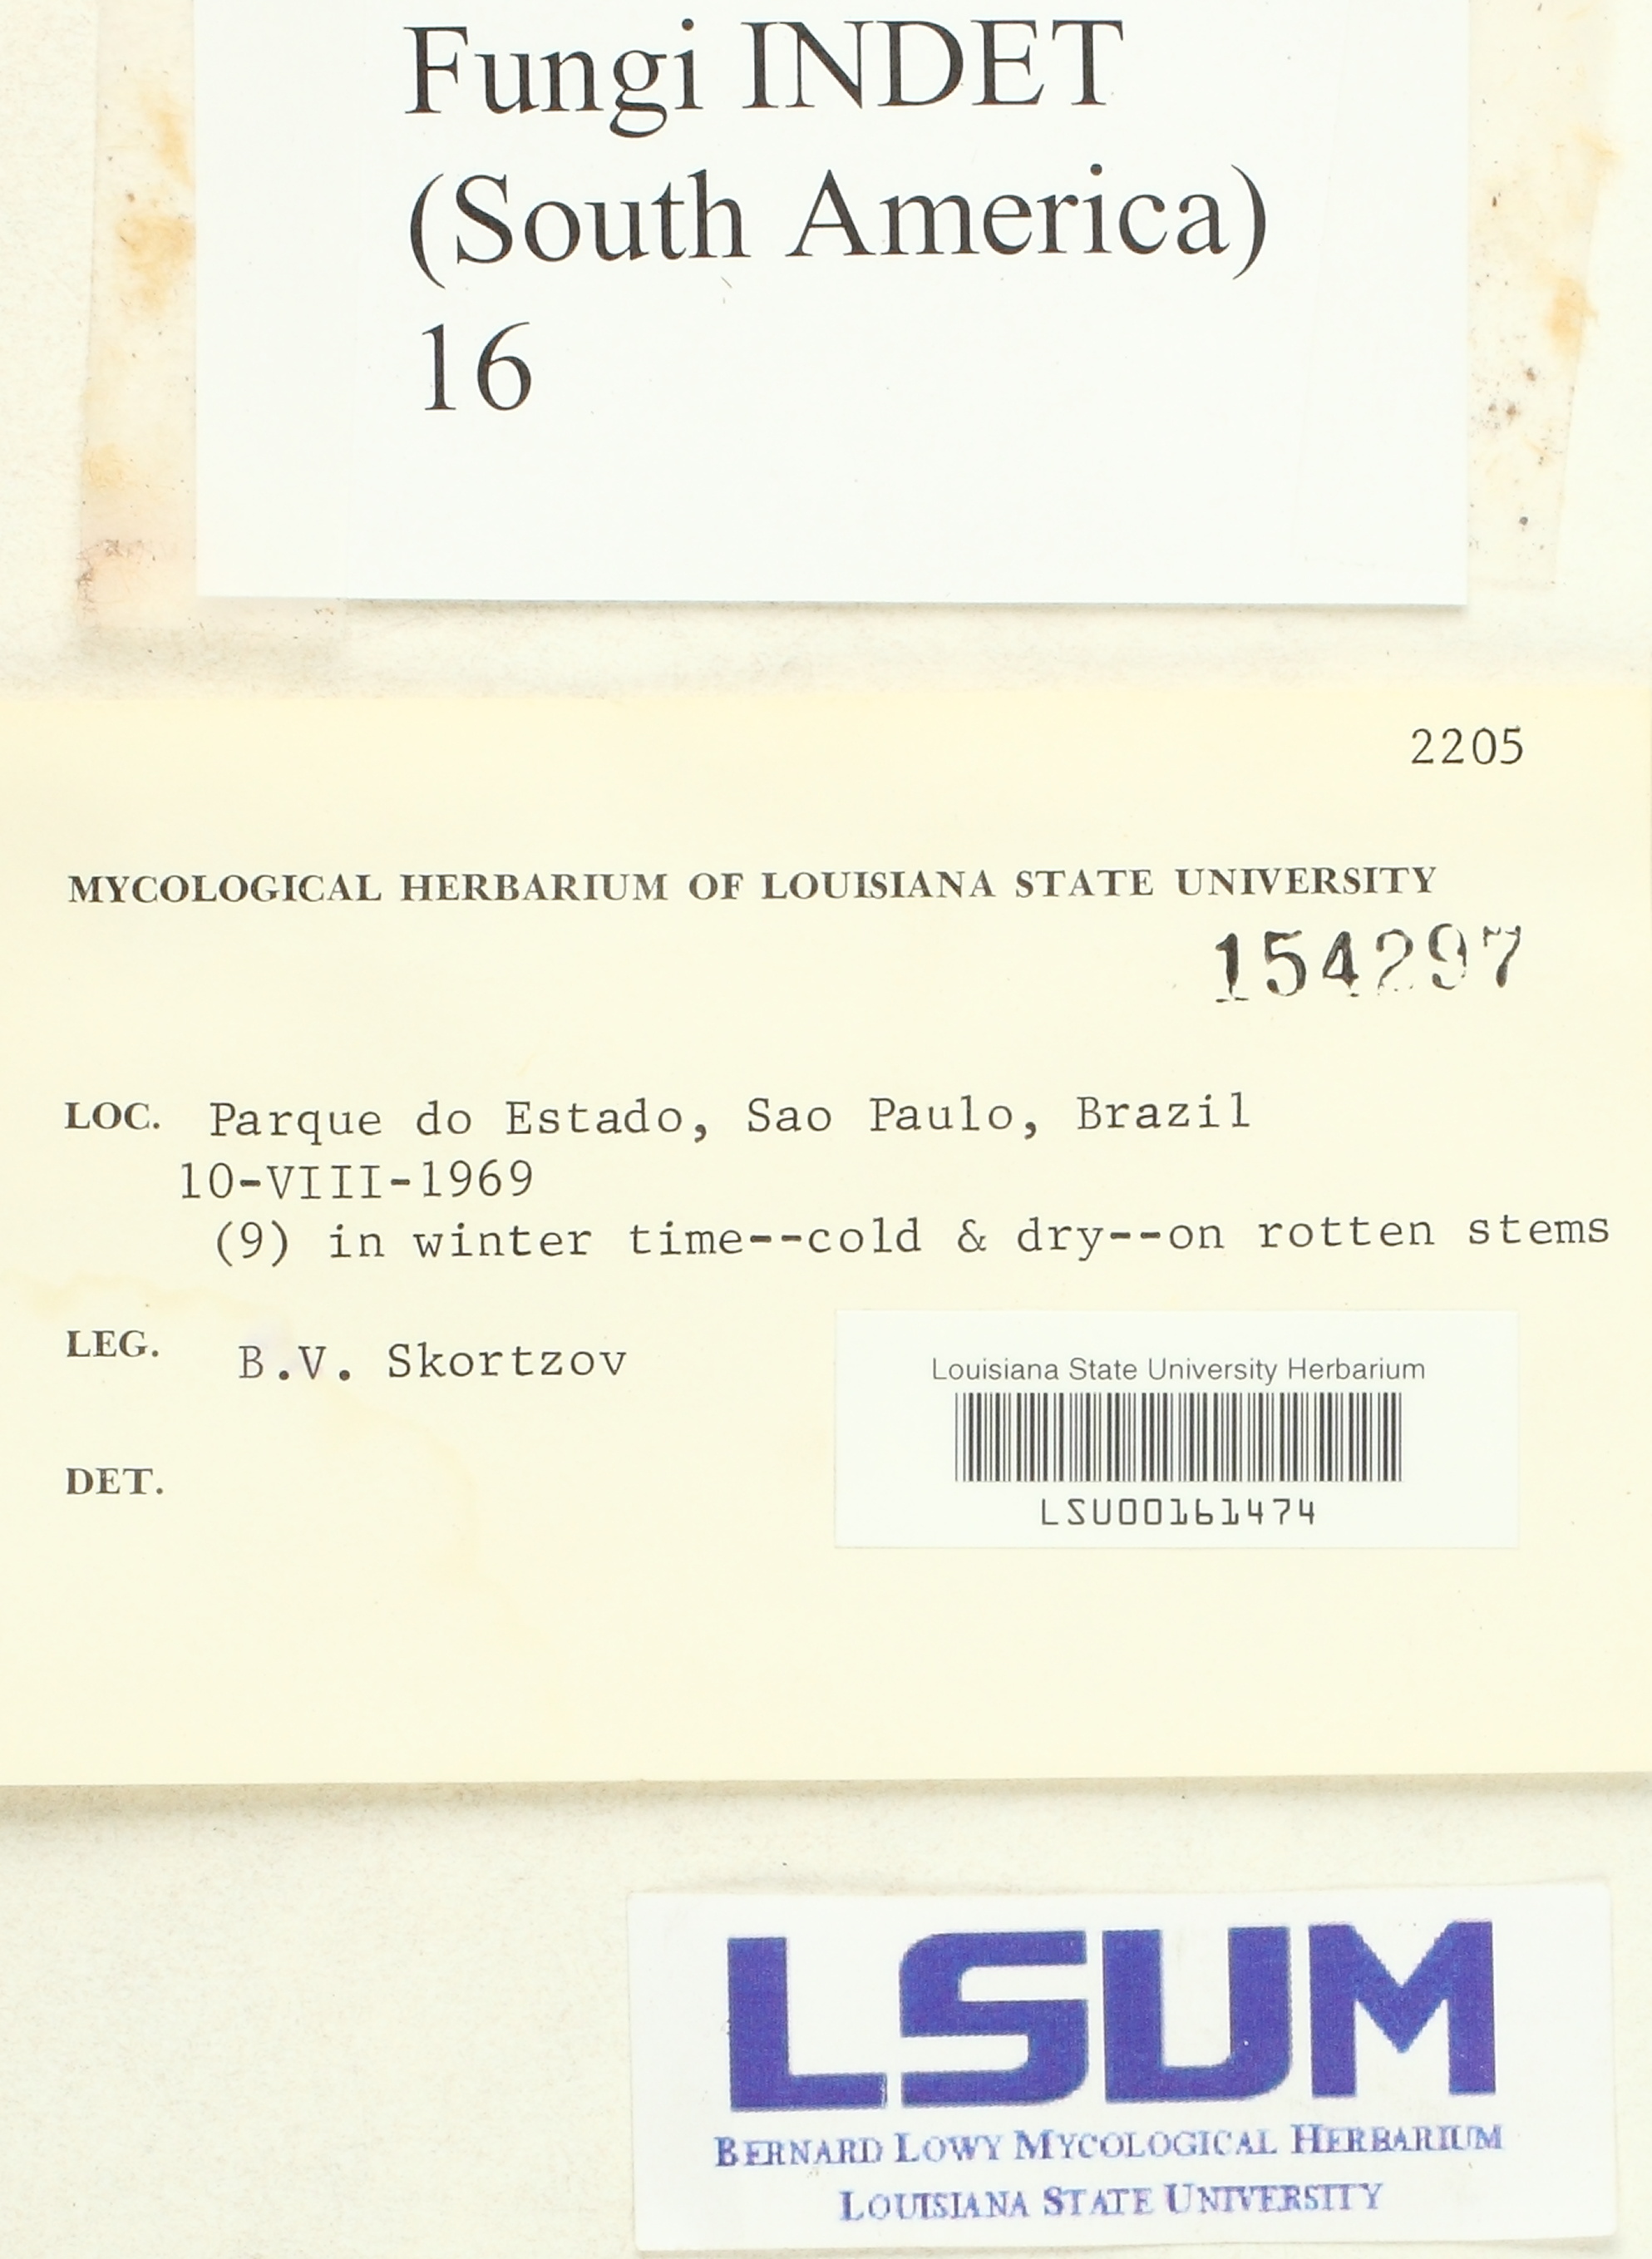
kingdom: Fungi
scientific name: Fungi
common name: Fungi
